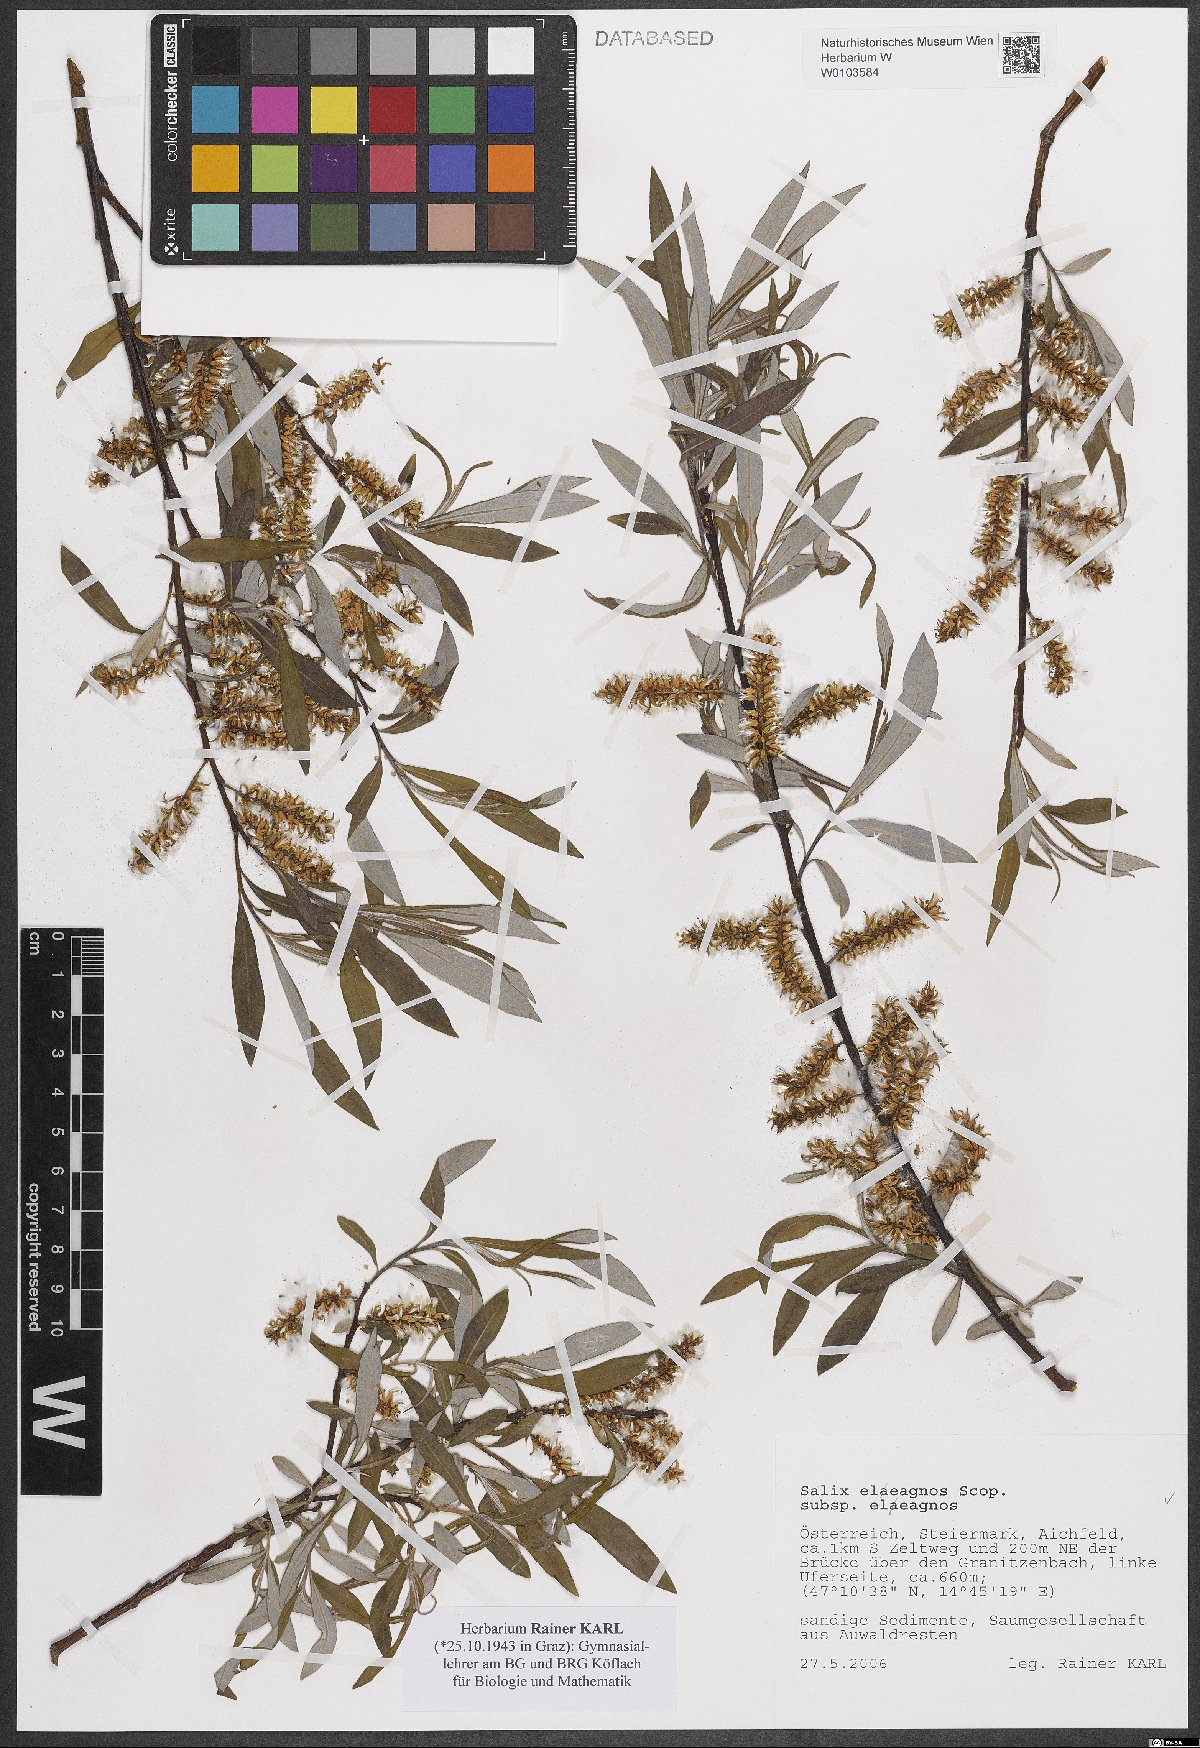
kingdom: Plantae
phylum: Tracheophyta
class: Magnoliopsida
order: Malpighiales
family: Salicaceae
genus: Salix
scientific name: Salix eleagnos
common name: Elaeagnus willow
